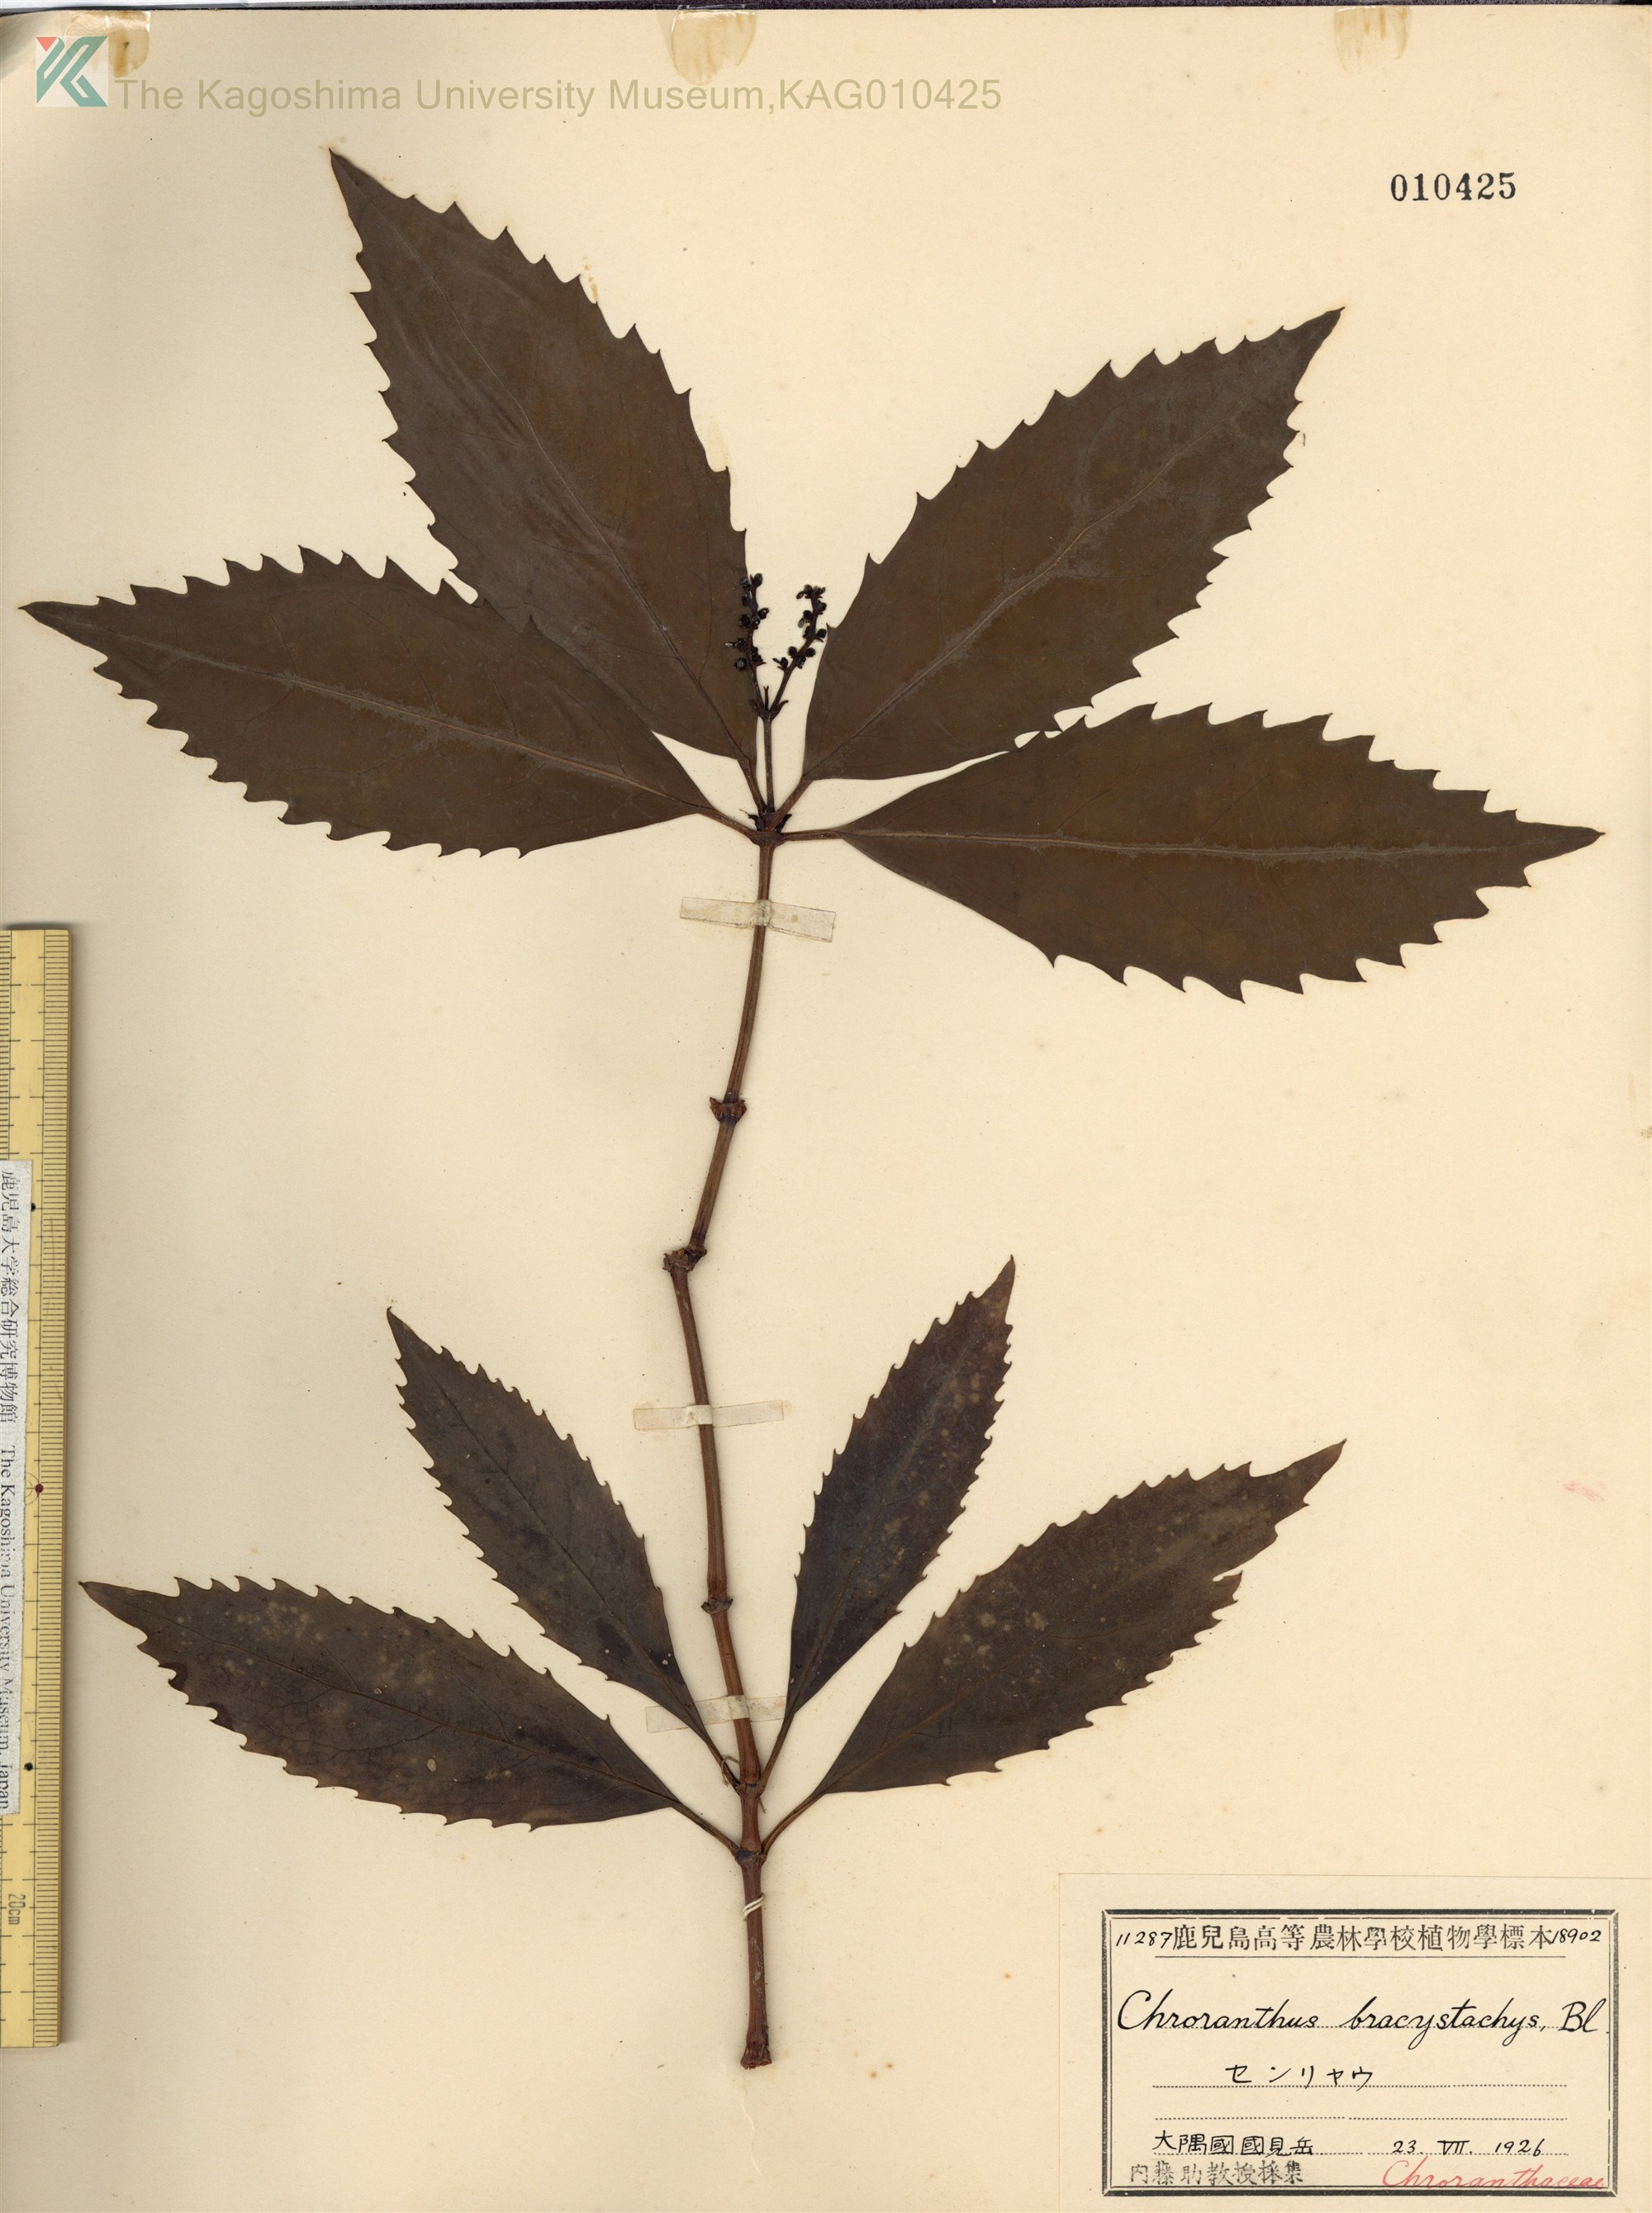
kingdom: Plantae
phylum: Tracheophyta
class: Magnoliopsida
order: Chloranthales
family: Chloranthaceae
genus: Sarcandra
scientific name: Sarcandra glabra
